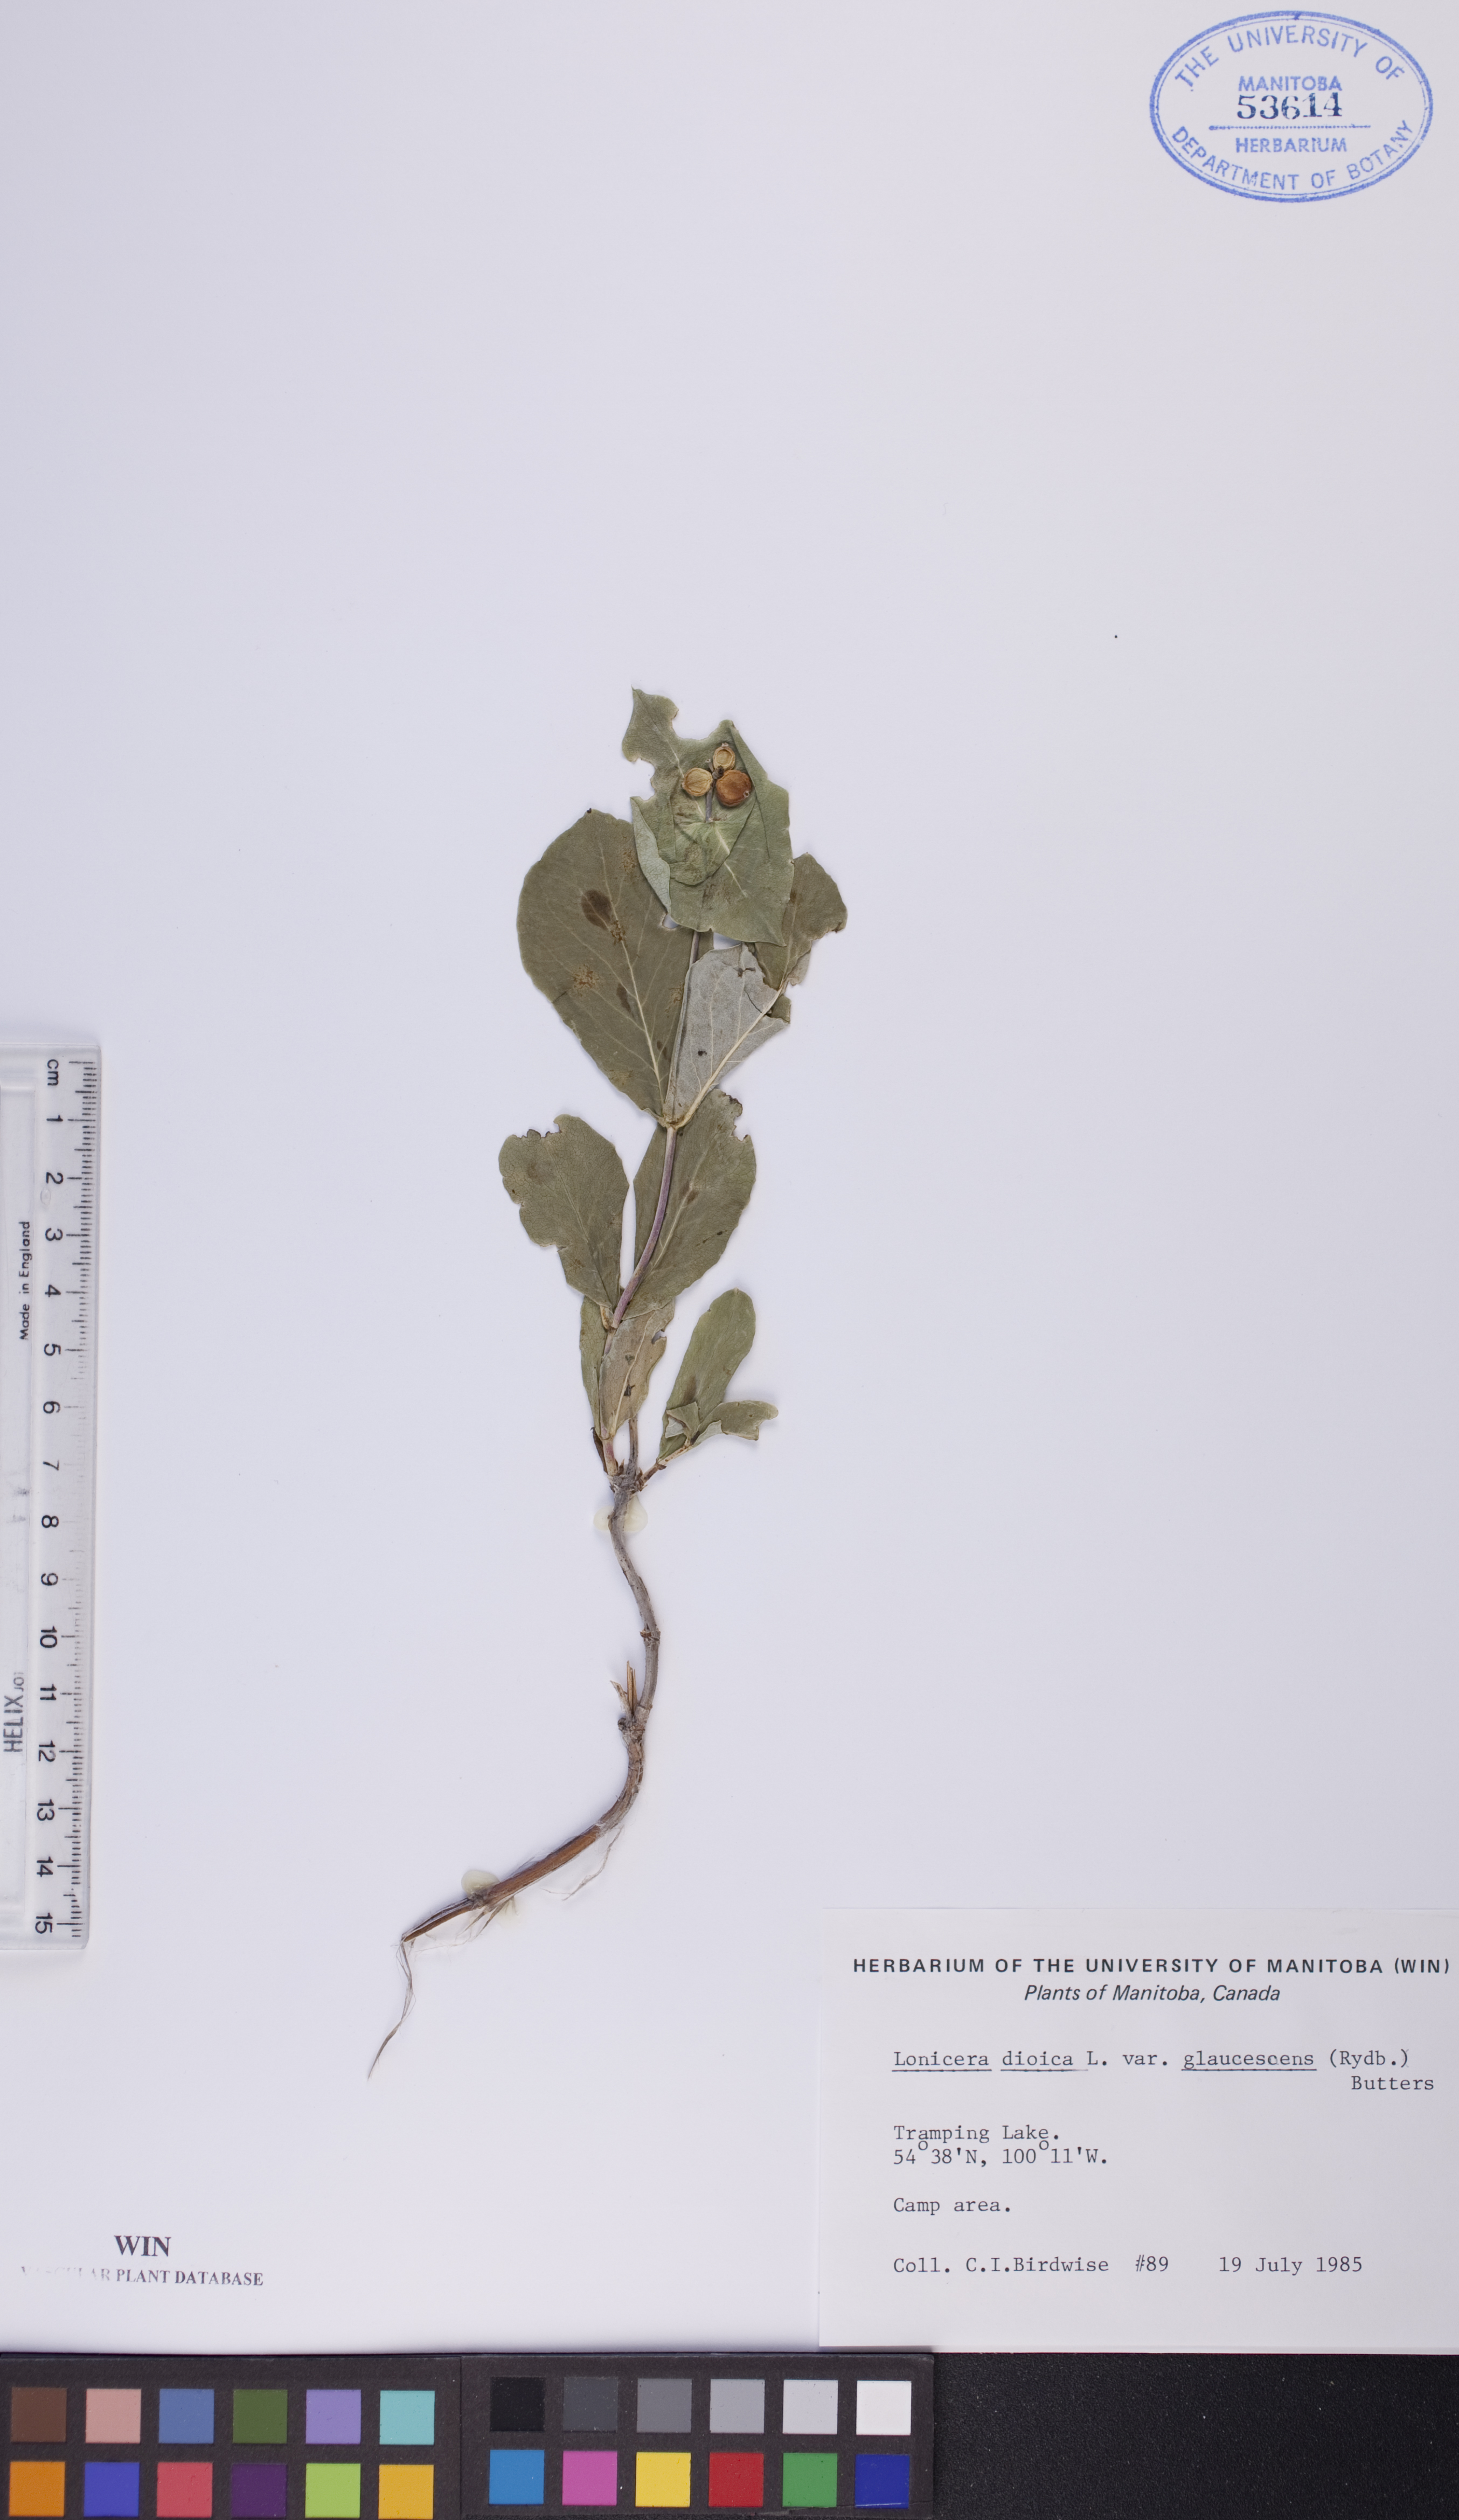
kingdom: Plantae
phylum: Tracheophyta
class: Magnoliopsida
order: Dipsacales
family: Caprifoliaceae
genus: Lonicera
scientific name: Lonicera dioica
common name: Limber honeysuckle
